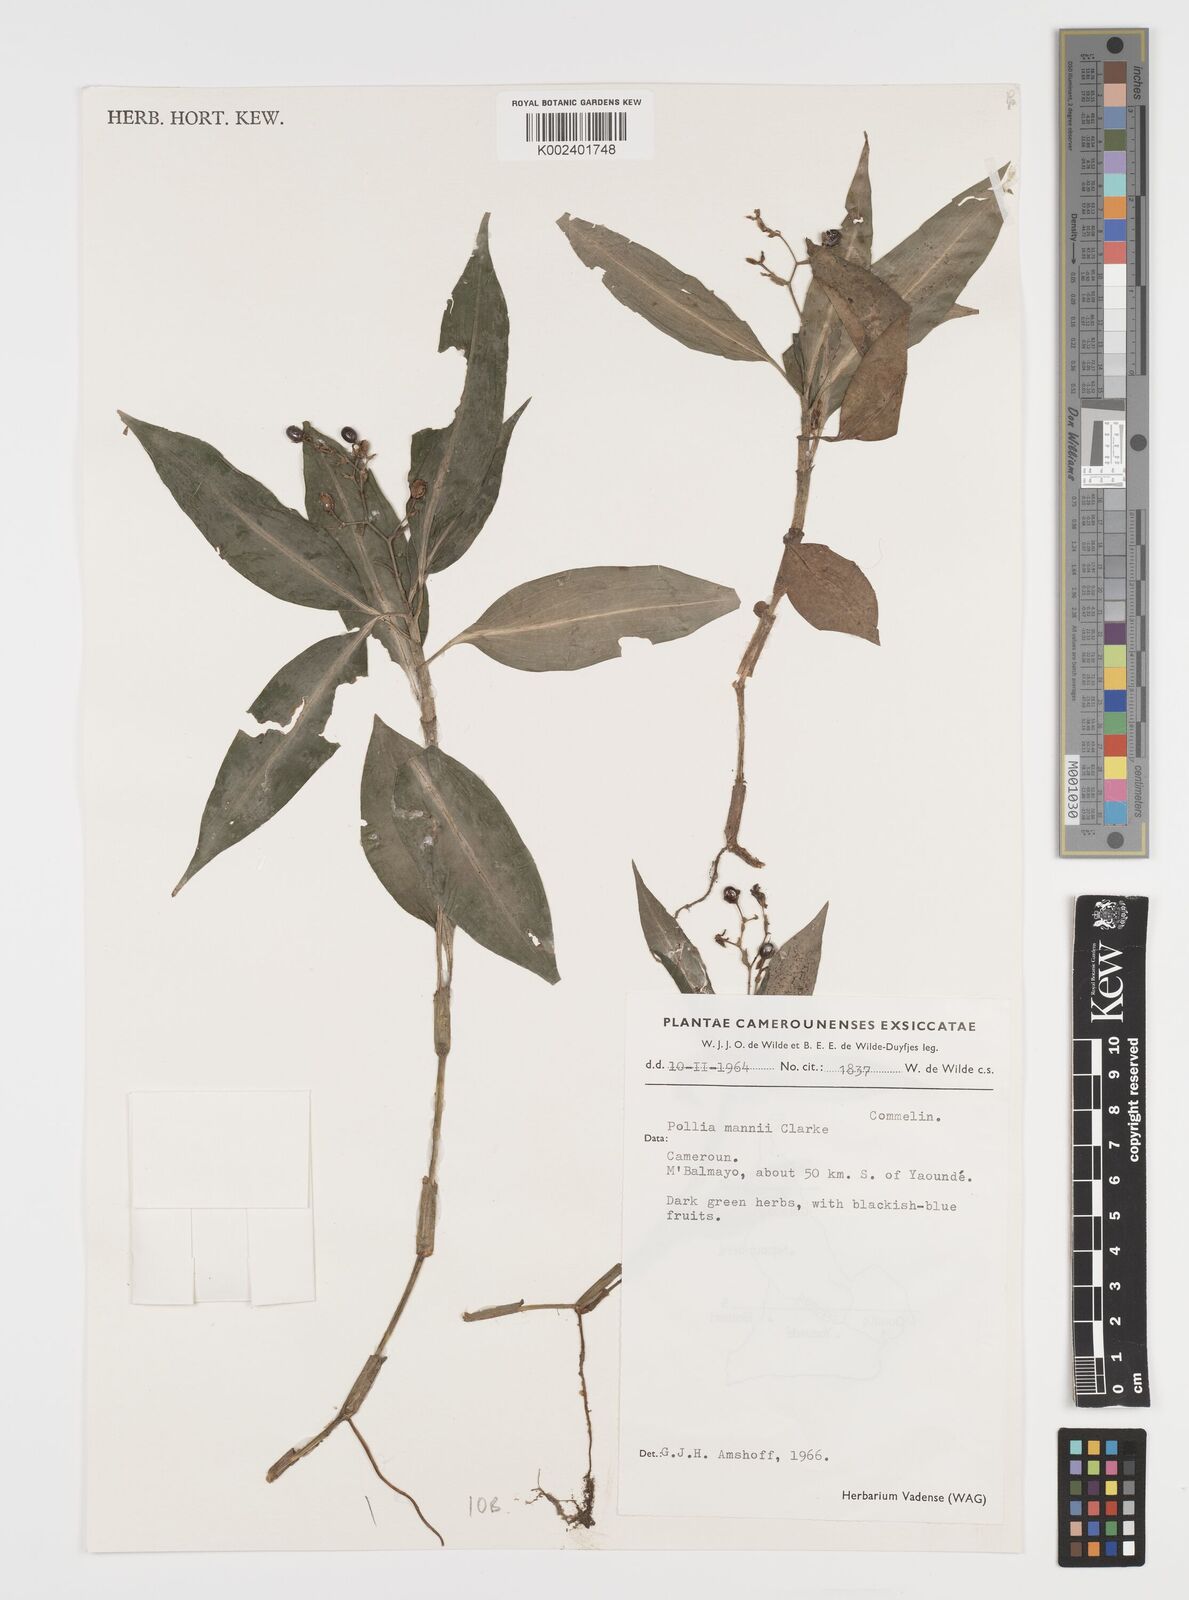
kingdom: Plantae
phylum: Tracheophyta
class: Liliopsida
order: Commelinales
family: Commelinaceae
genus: Pollia
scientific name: Pollia mannii
